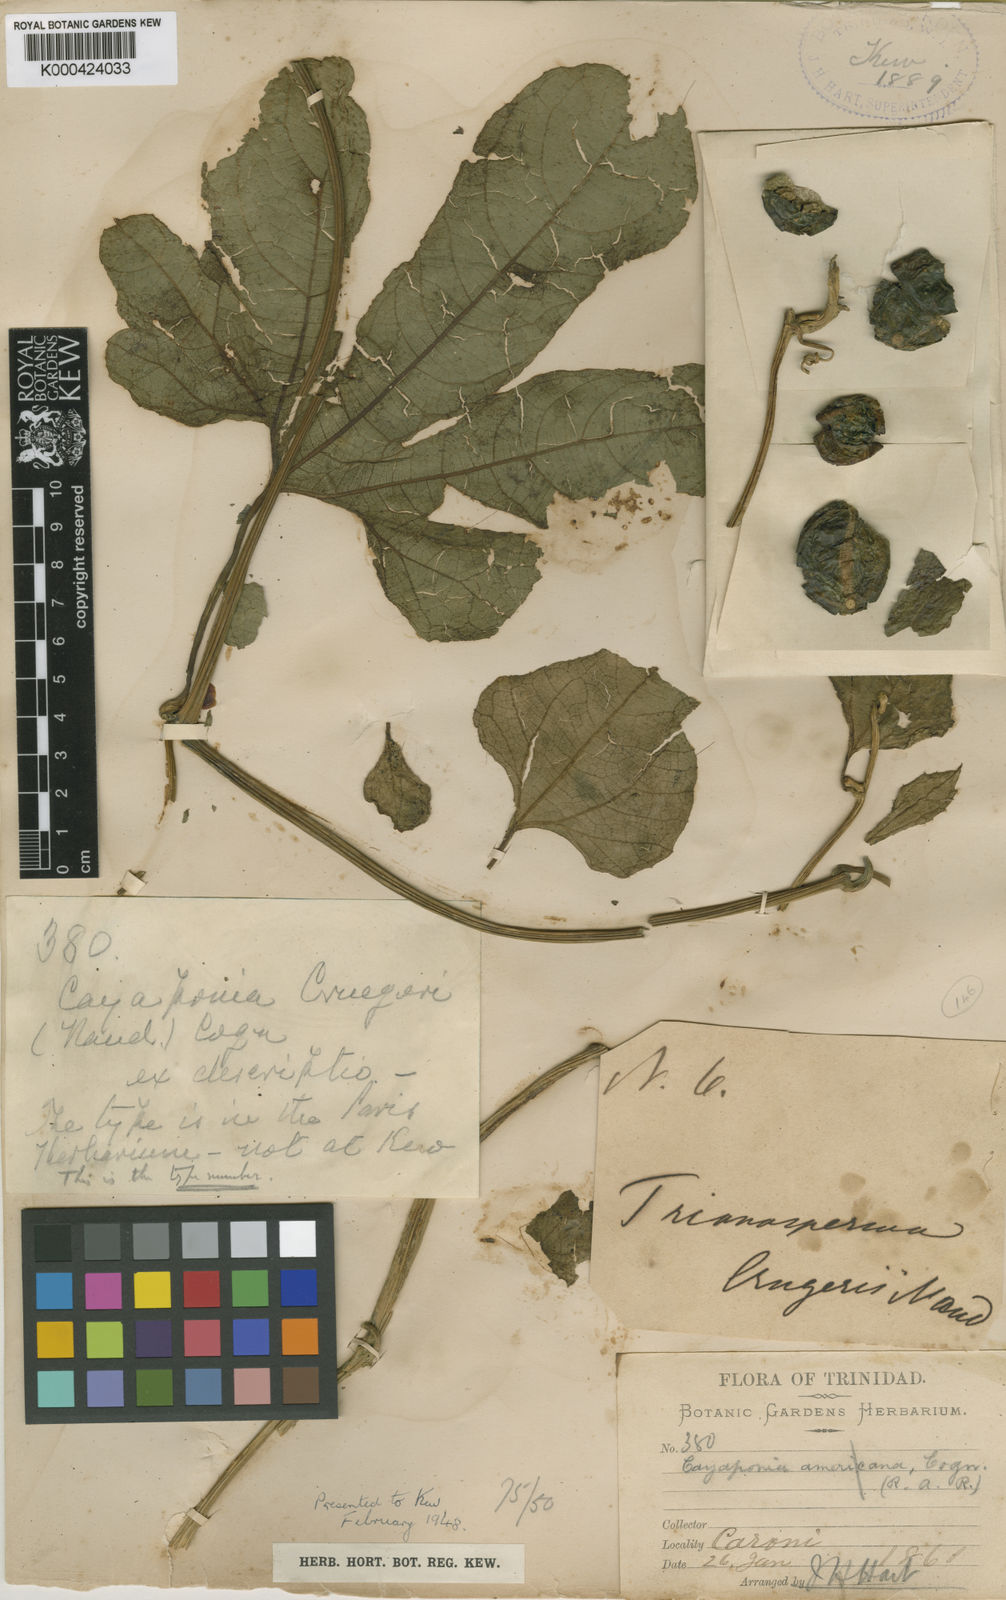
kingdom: Plantae
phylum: Tracheophyta
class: Magnoliopsida
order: Cucurbitales
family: Cucurbitaceae
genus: Cayaponia
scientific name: Cayaponia cruegeri
